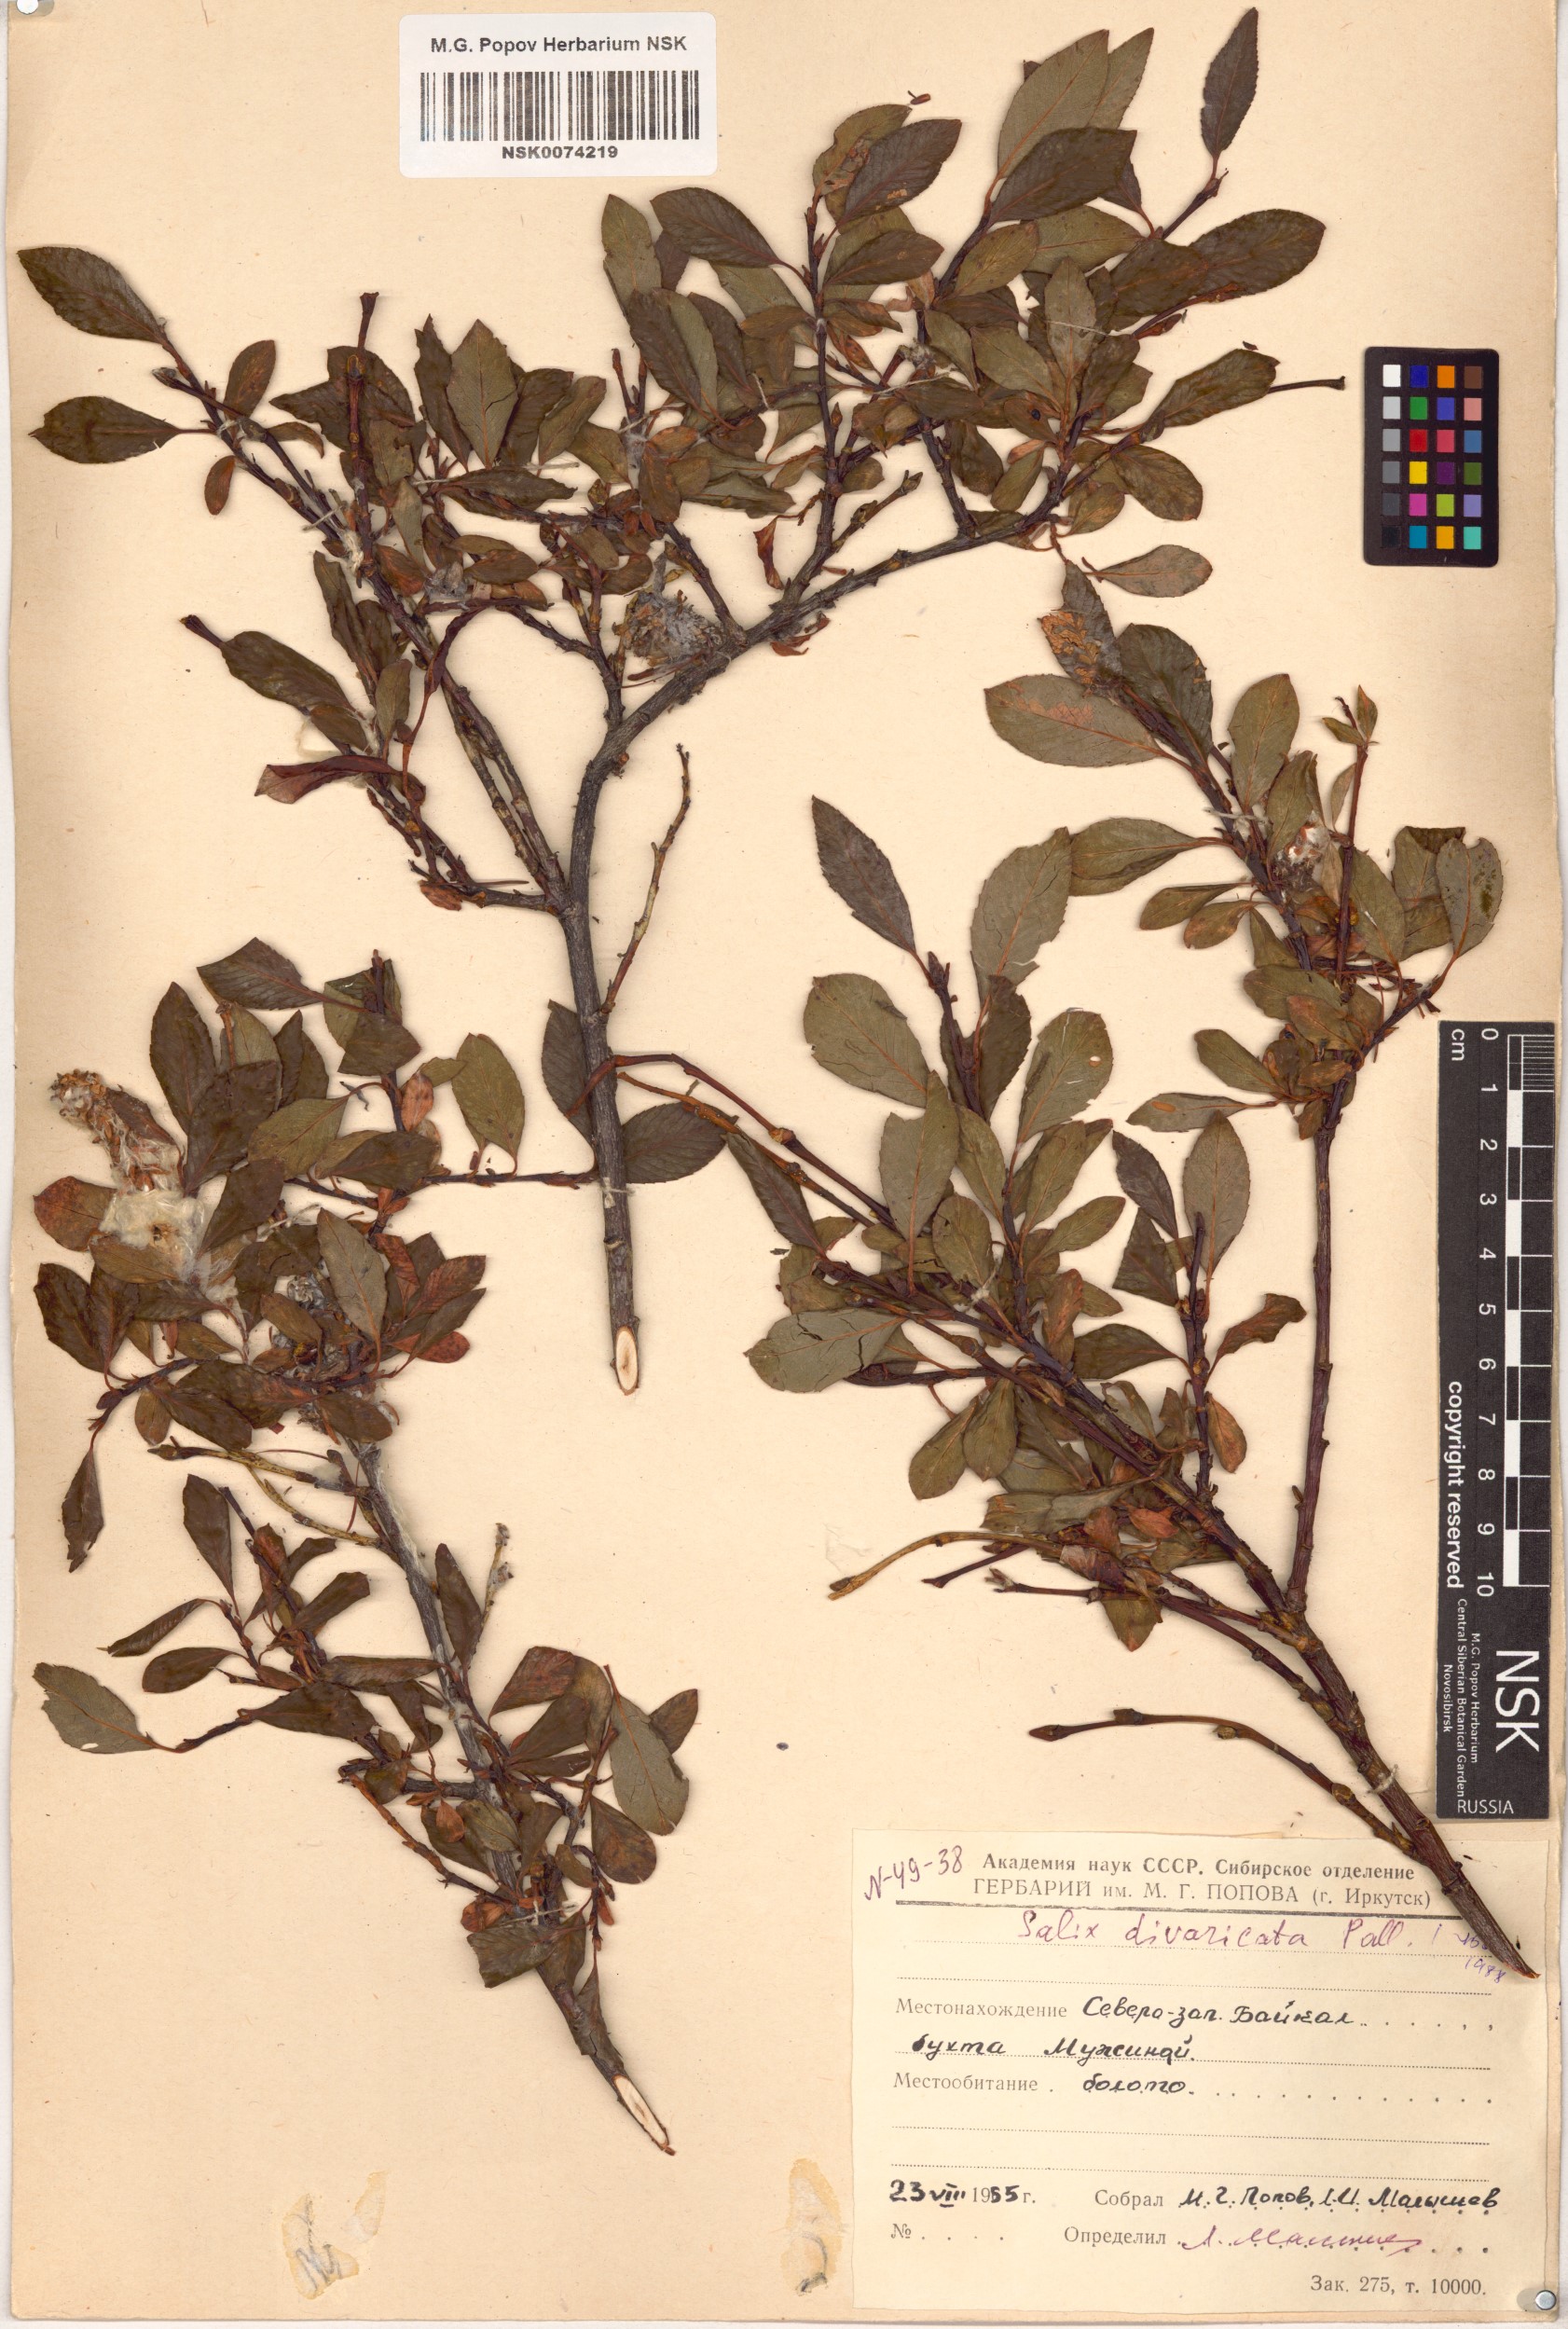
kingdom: Plantae
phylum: Tracheophyta
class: Magnoliopsida
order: Malpighiales
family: Salicaceae
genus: Salix
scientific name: Salix divaricata
